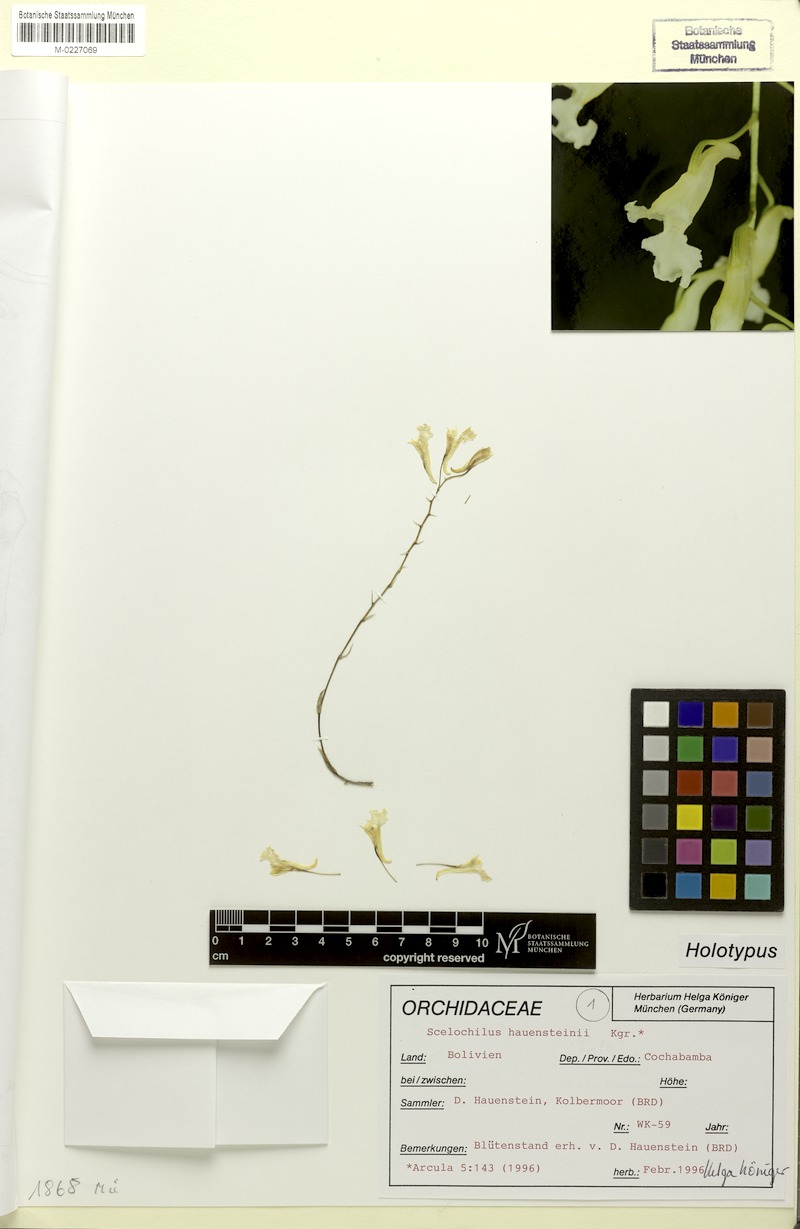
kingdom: Plantae
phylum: Tracheophyta
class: Liliopsida
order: Asparagales
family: Orchidaceae
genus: Comparettia
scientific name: Comparettia hauensteinii
